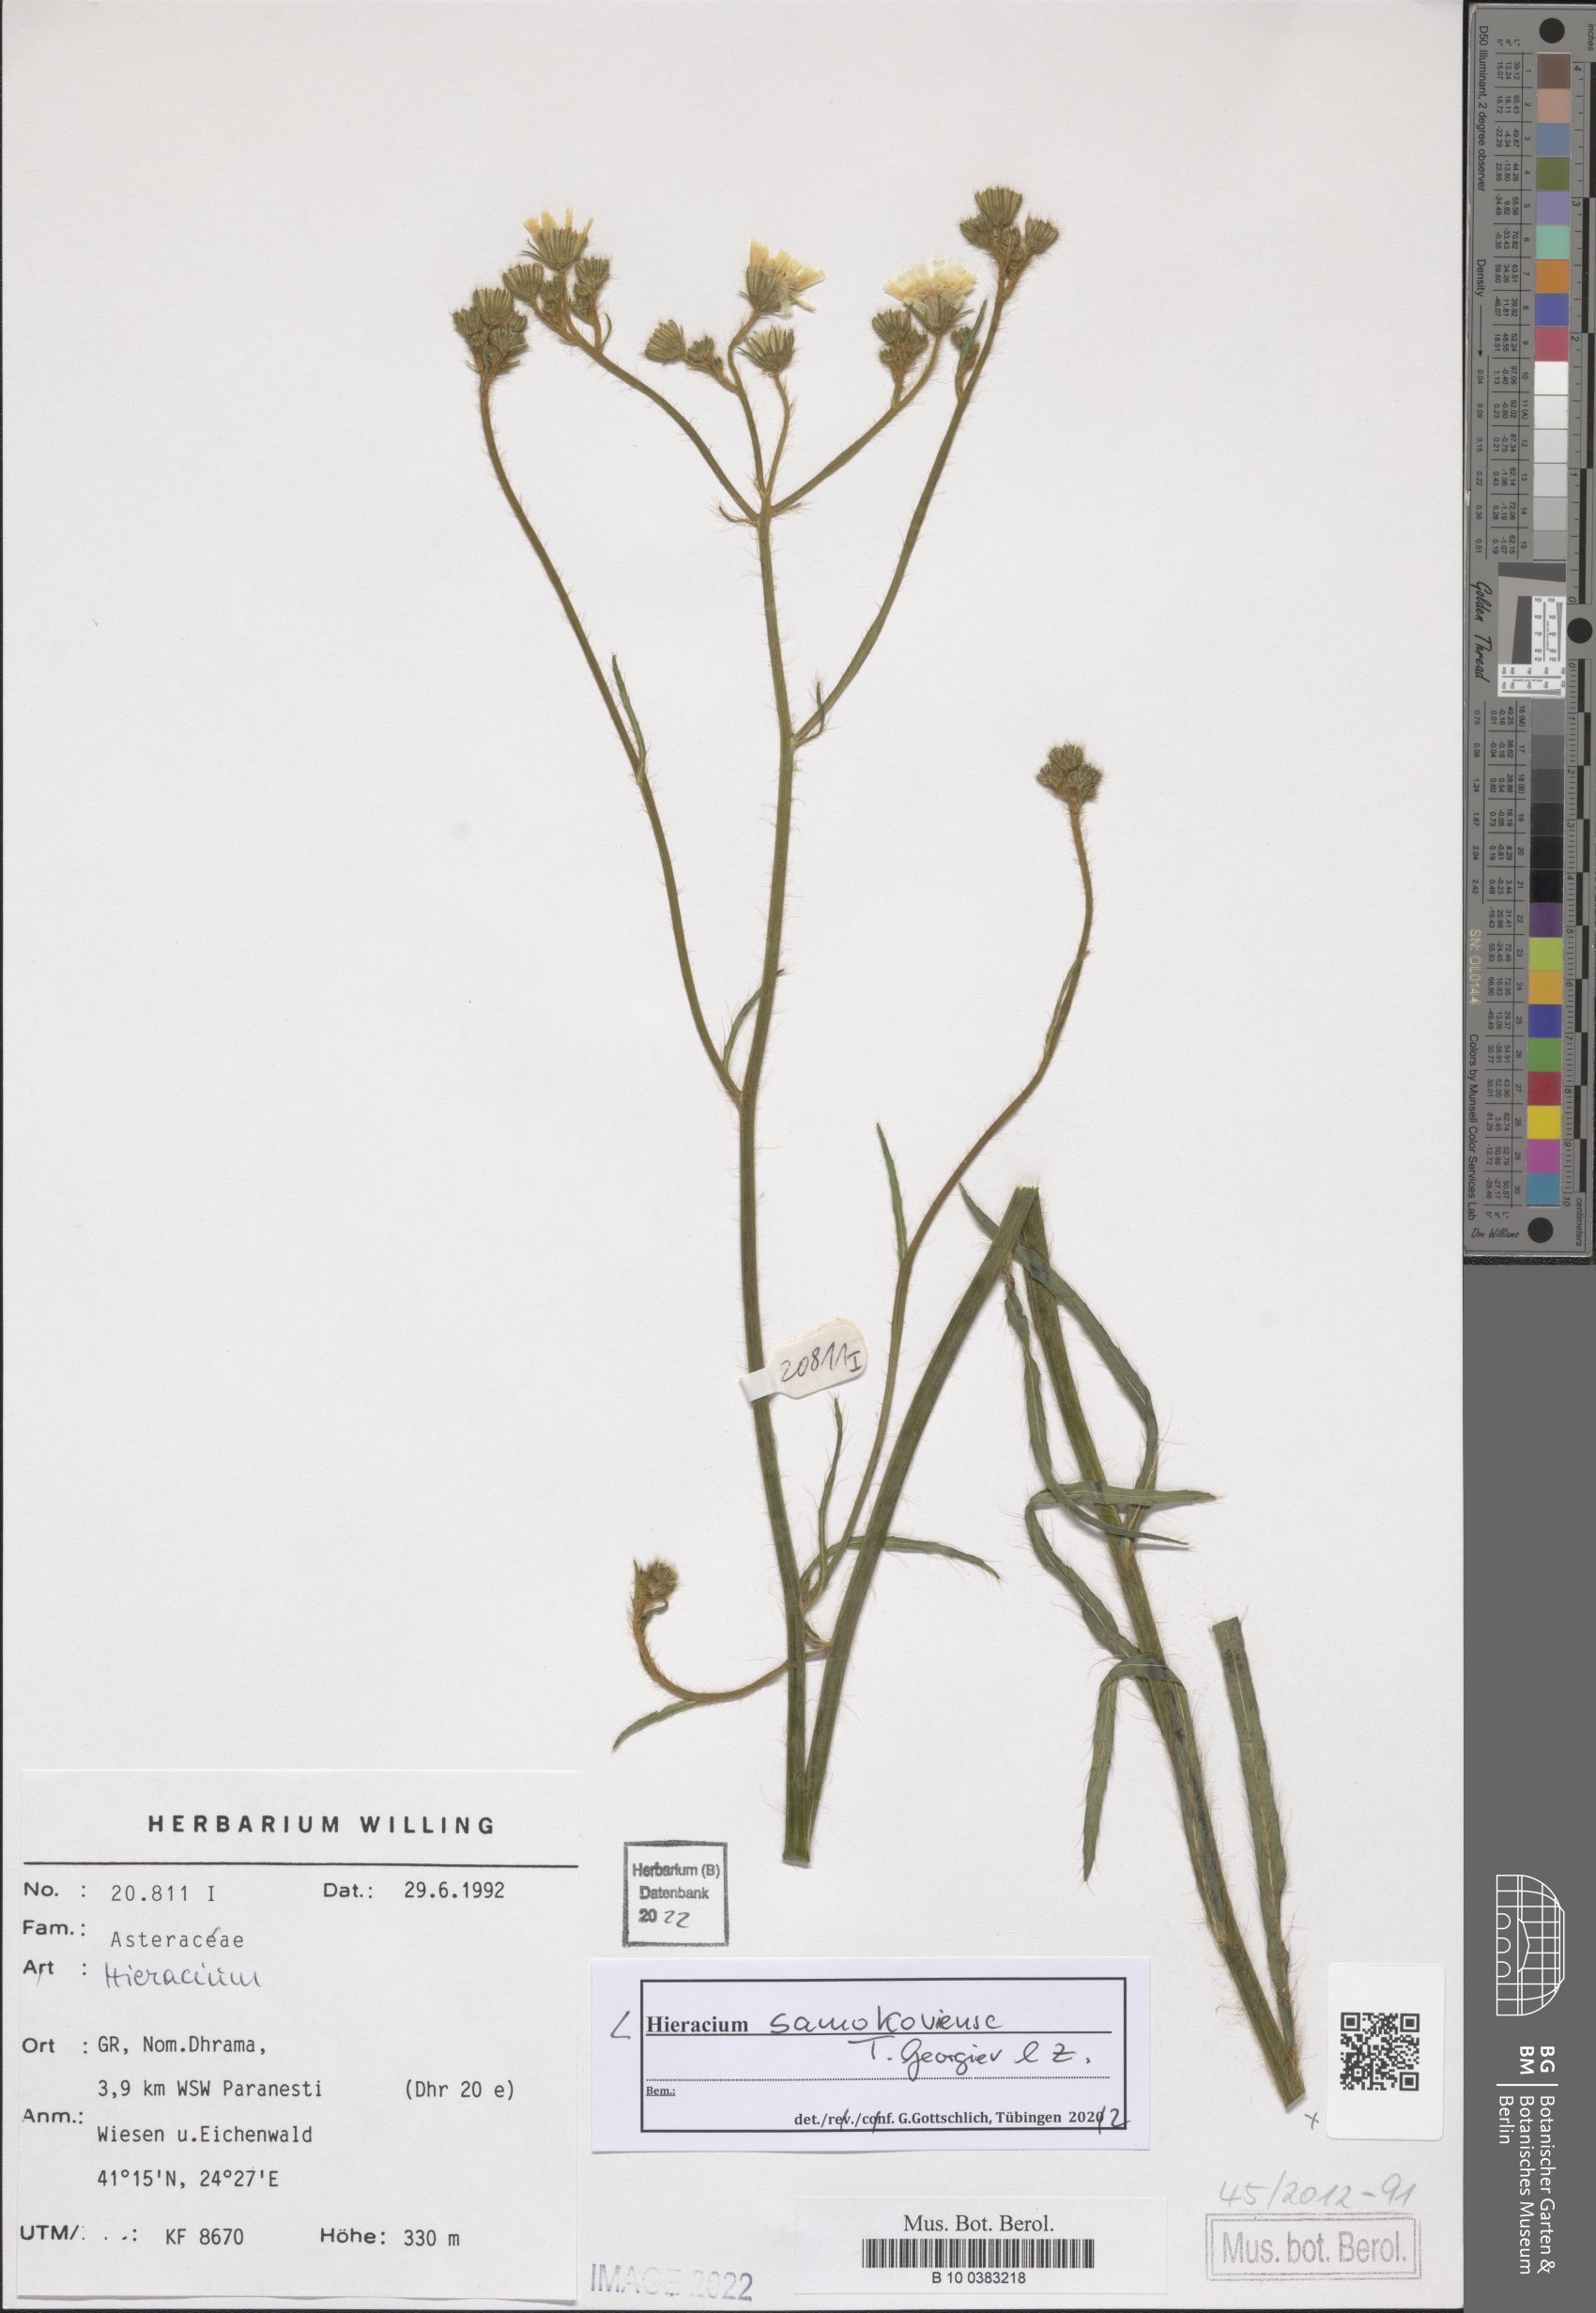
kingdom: Plantae
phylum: Tracheophyta
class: Magnoliopsida
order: Asterales
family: Asteraceae
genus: Pilosella
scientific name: Pilosella samokoviensis
